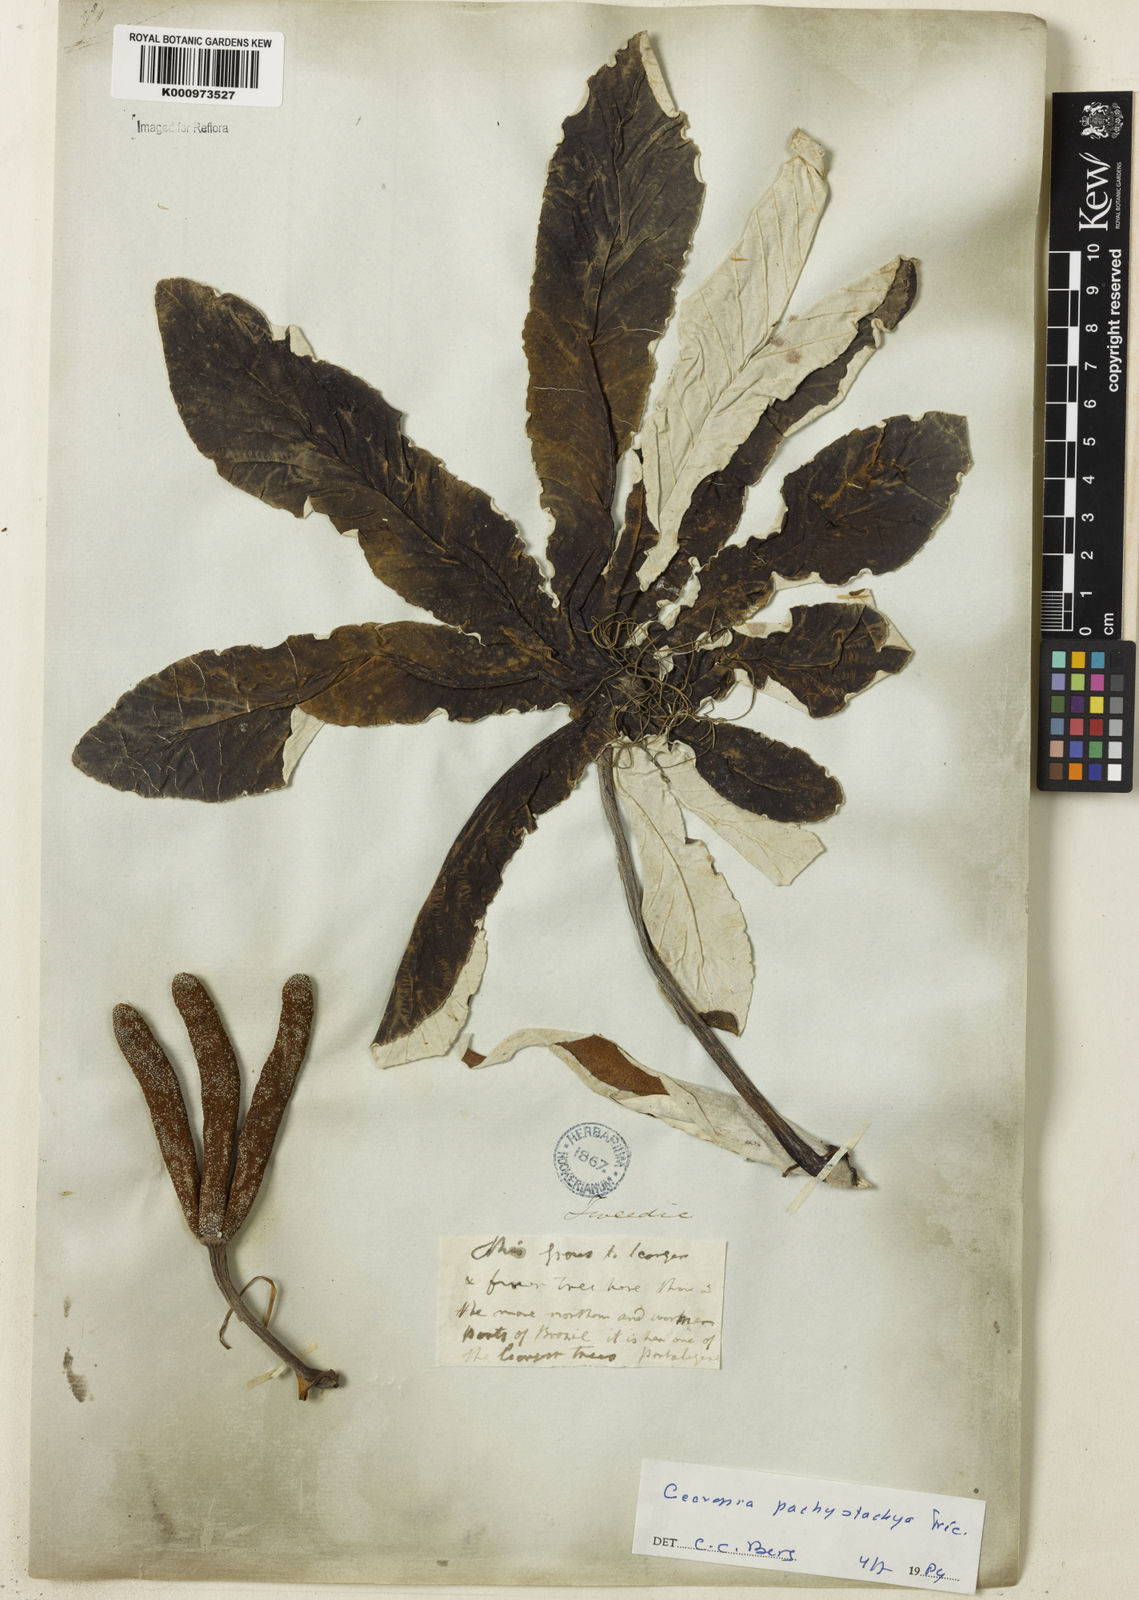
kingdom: Plantae
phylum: Tracheophyta
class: Magnoliopsida
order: Rosales
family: Urticaceae
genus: Cecropia
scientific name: Cecropia
